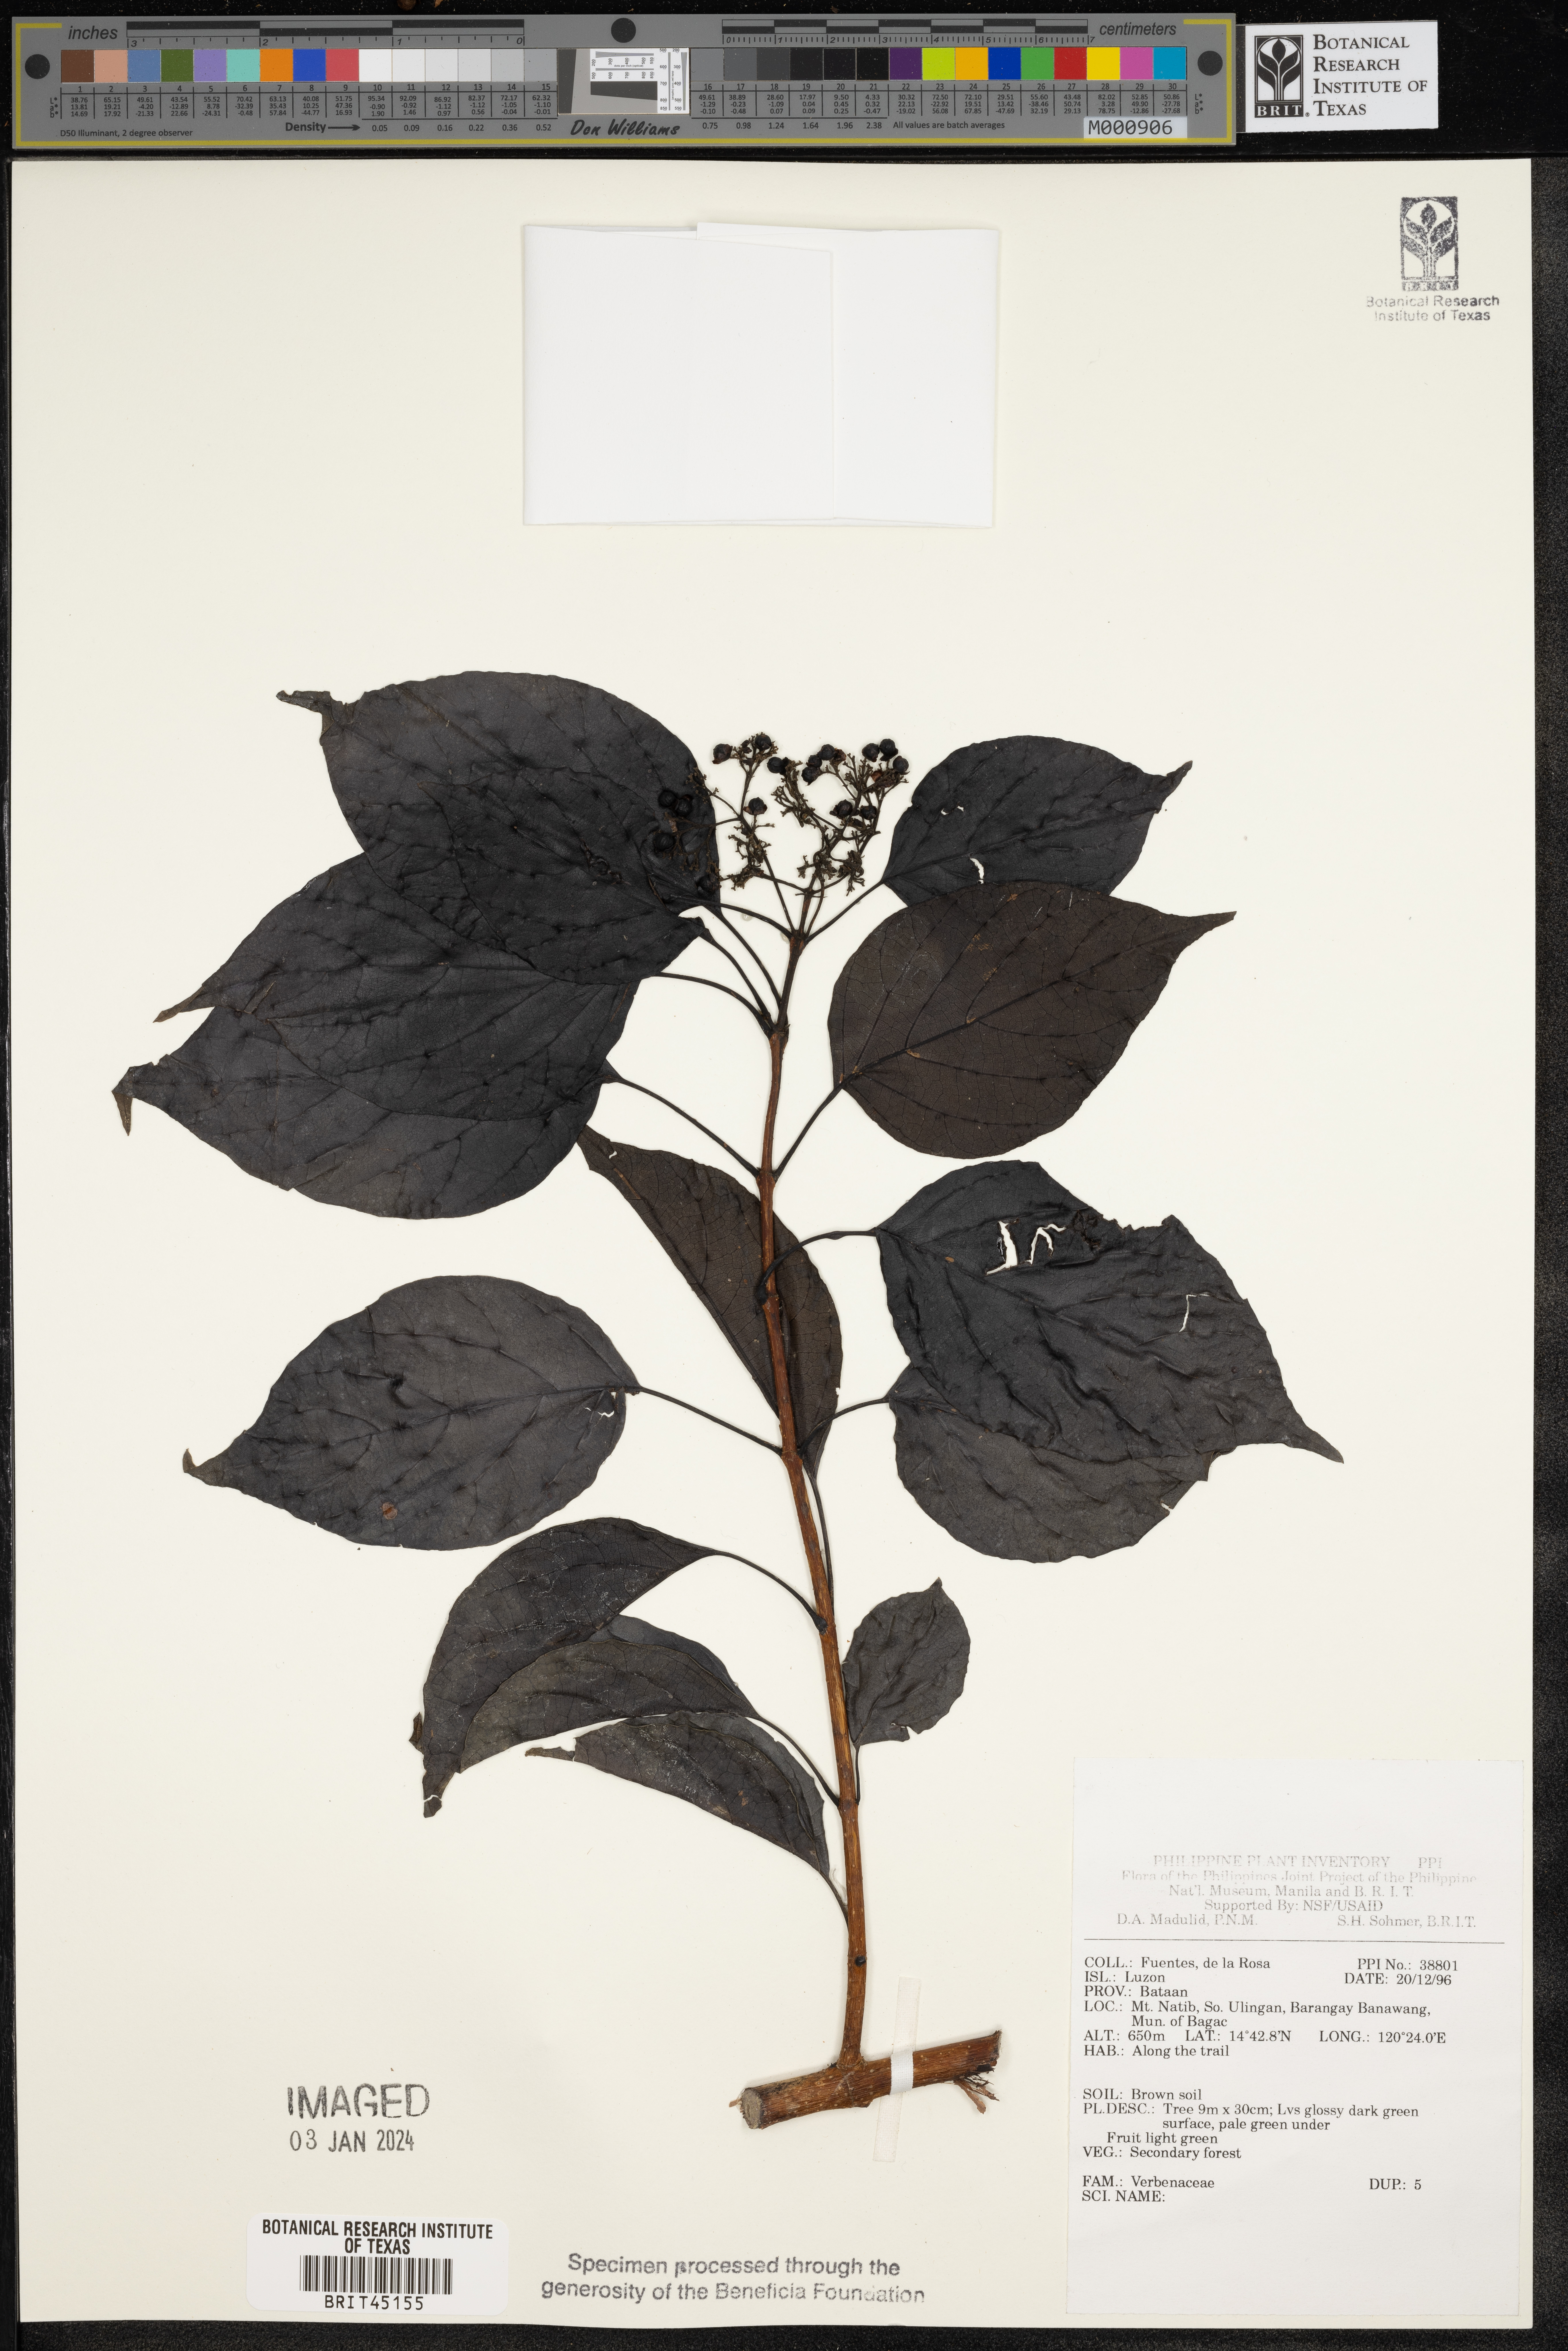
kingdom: Plantae
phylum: Tracheophyta
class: Magnoliopsida
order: Lamiales
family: Verbenaceae
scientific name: Verbenaceae
